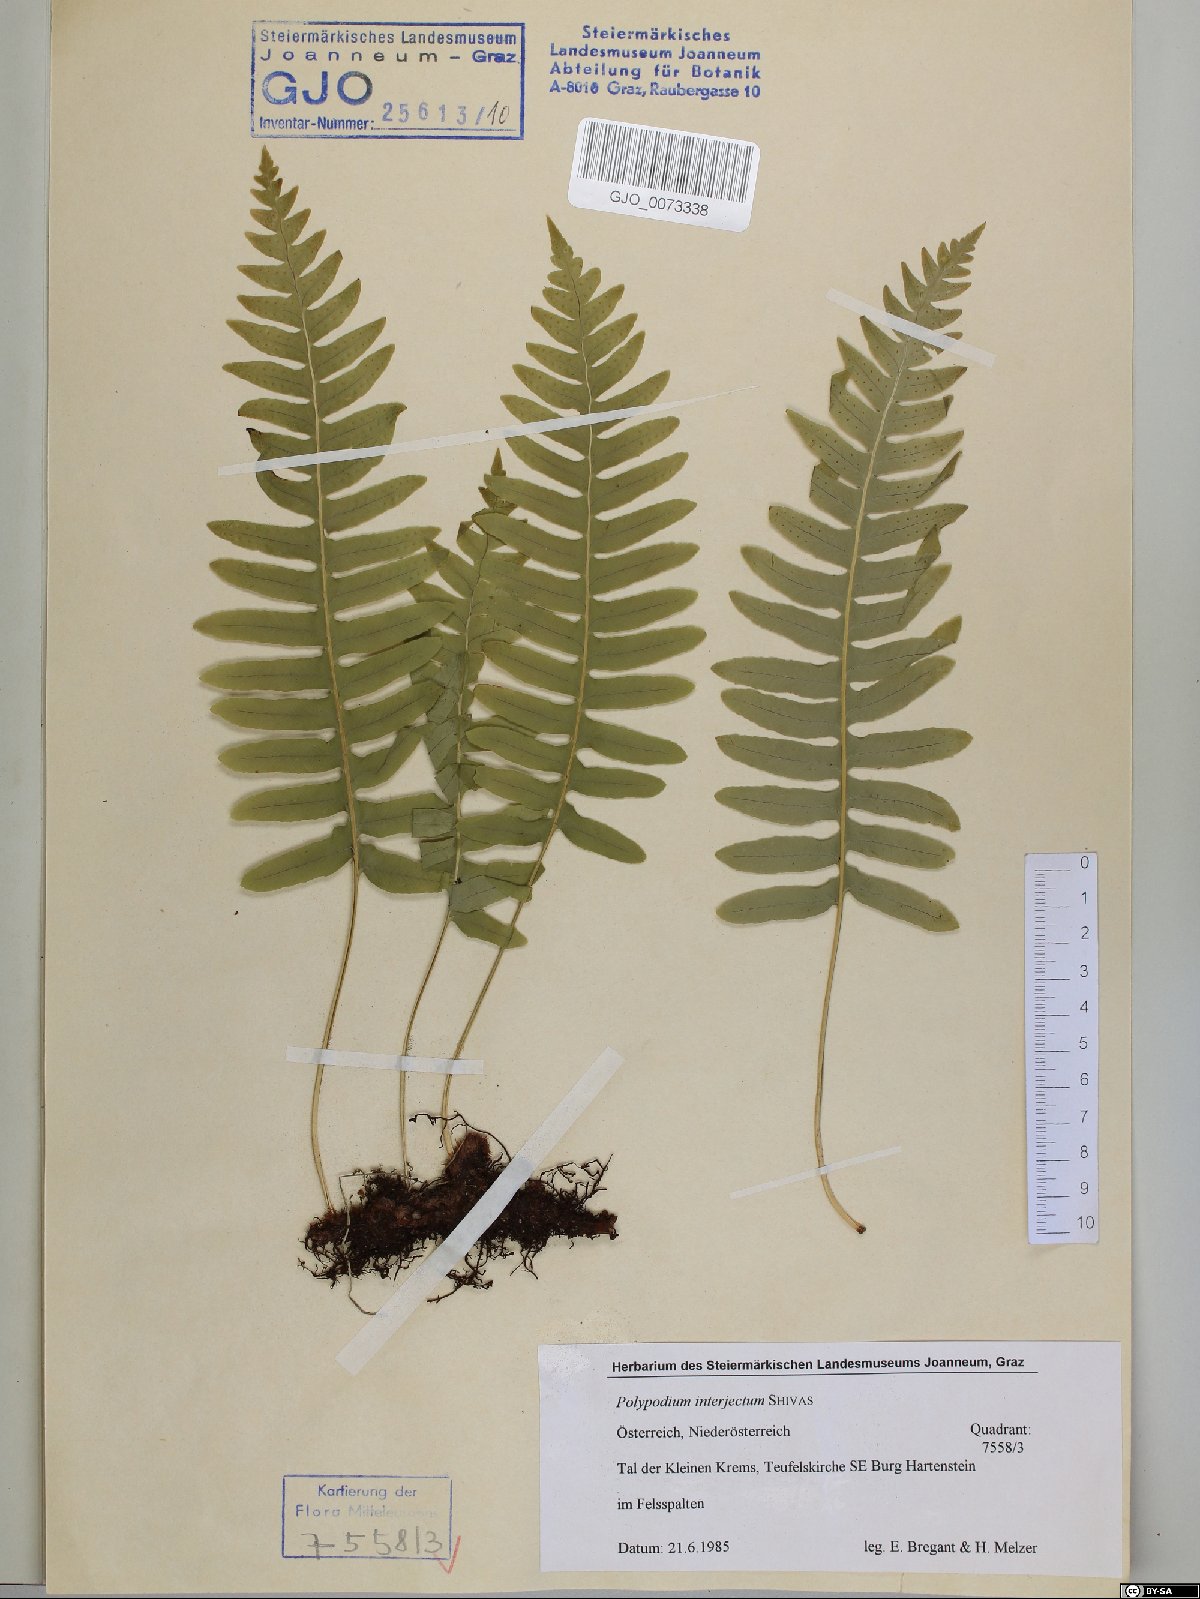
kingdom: Plantae
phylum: Tracheophyta
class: Polypodiopsida
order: Polypodiales
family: Polypodiaceae
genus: Polypodium
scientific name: Polypodium interjectum
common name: Intermediate polypody
